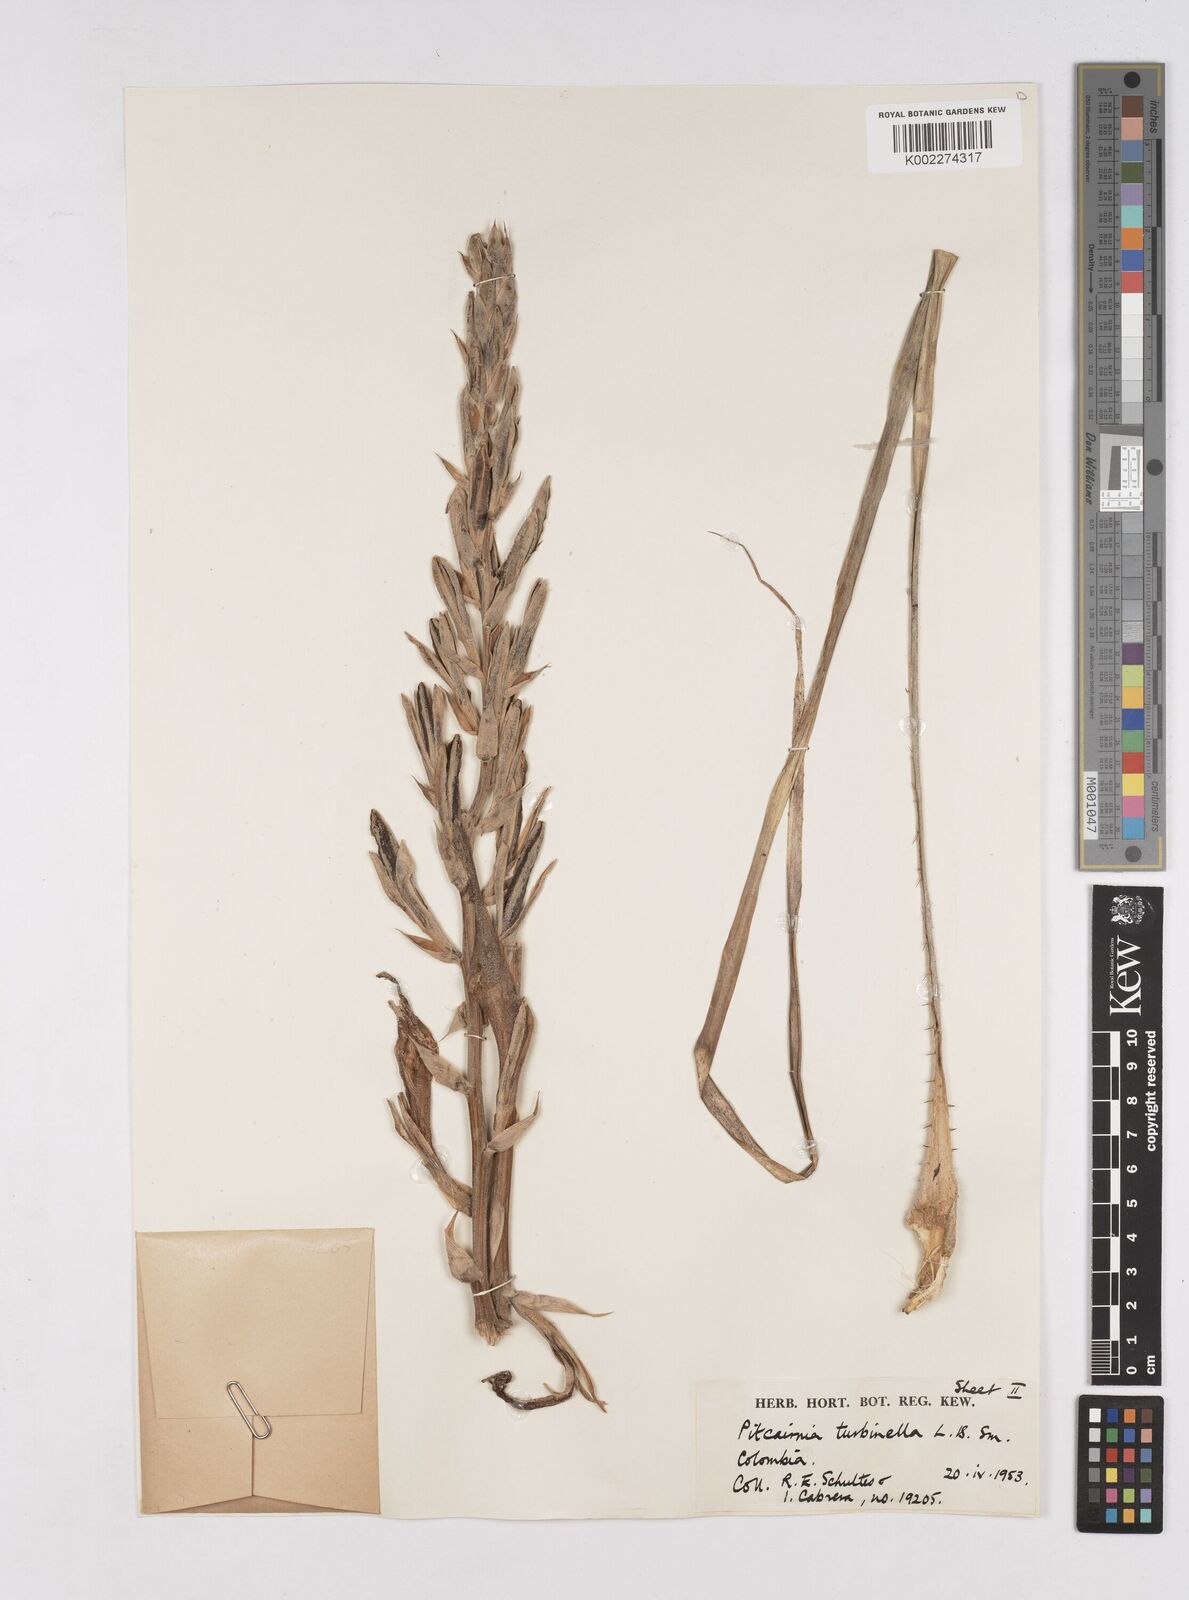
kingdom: Plantae
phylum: Tracheophyta
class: Liliopsida
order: Poales
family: Bromeliaceae
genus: Pitcairnia
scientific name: Pitcairnia turbinella
